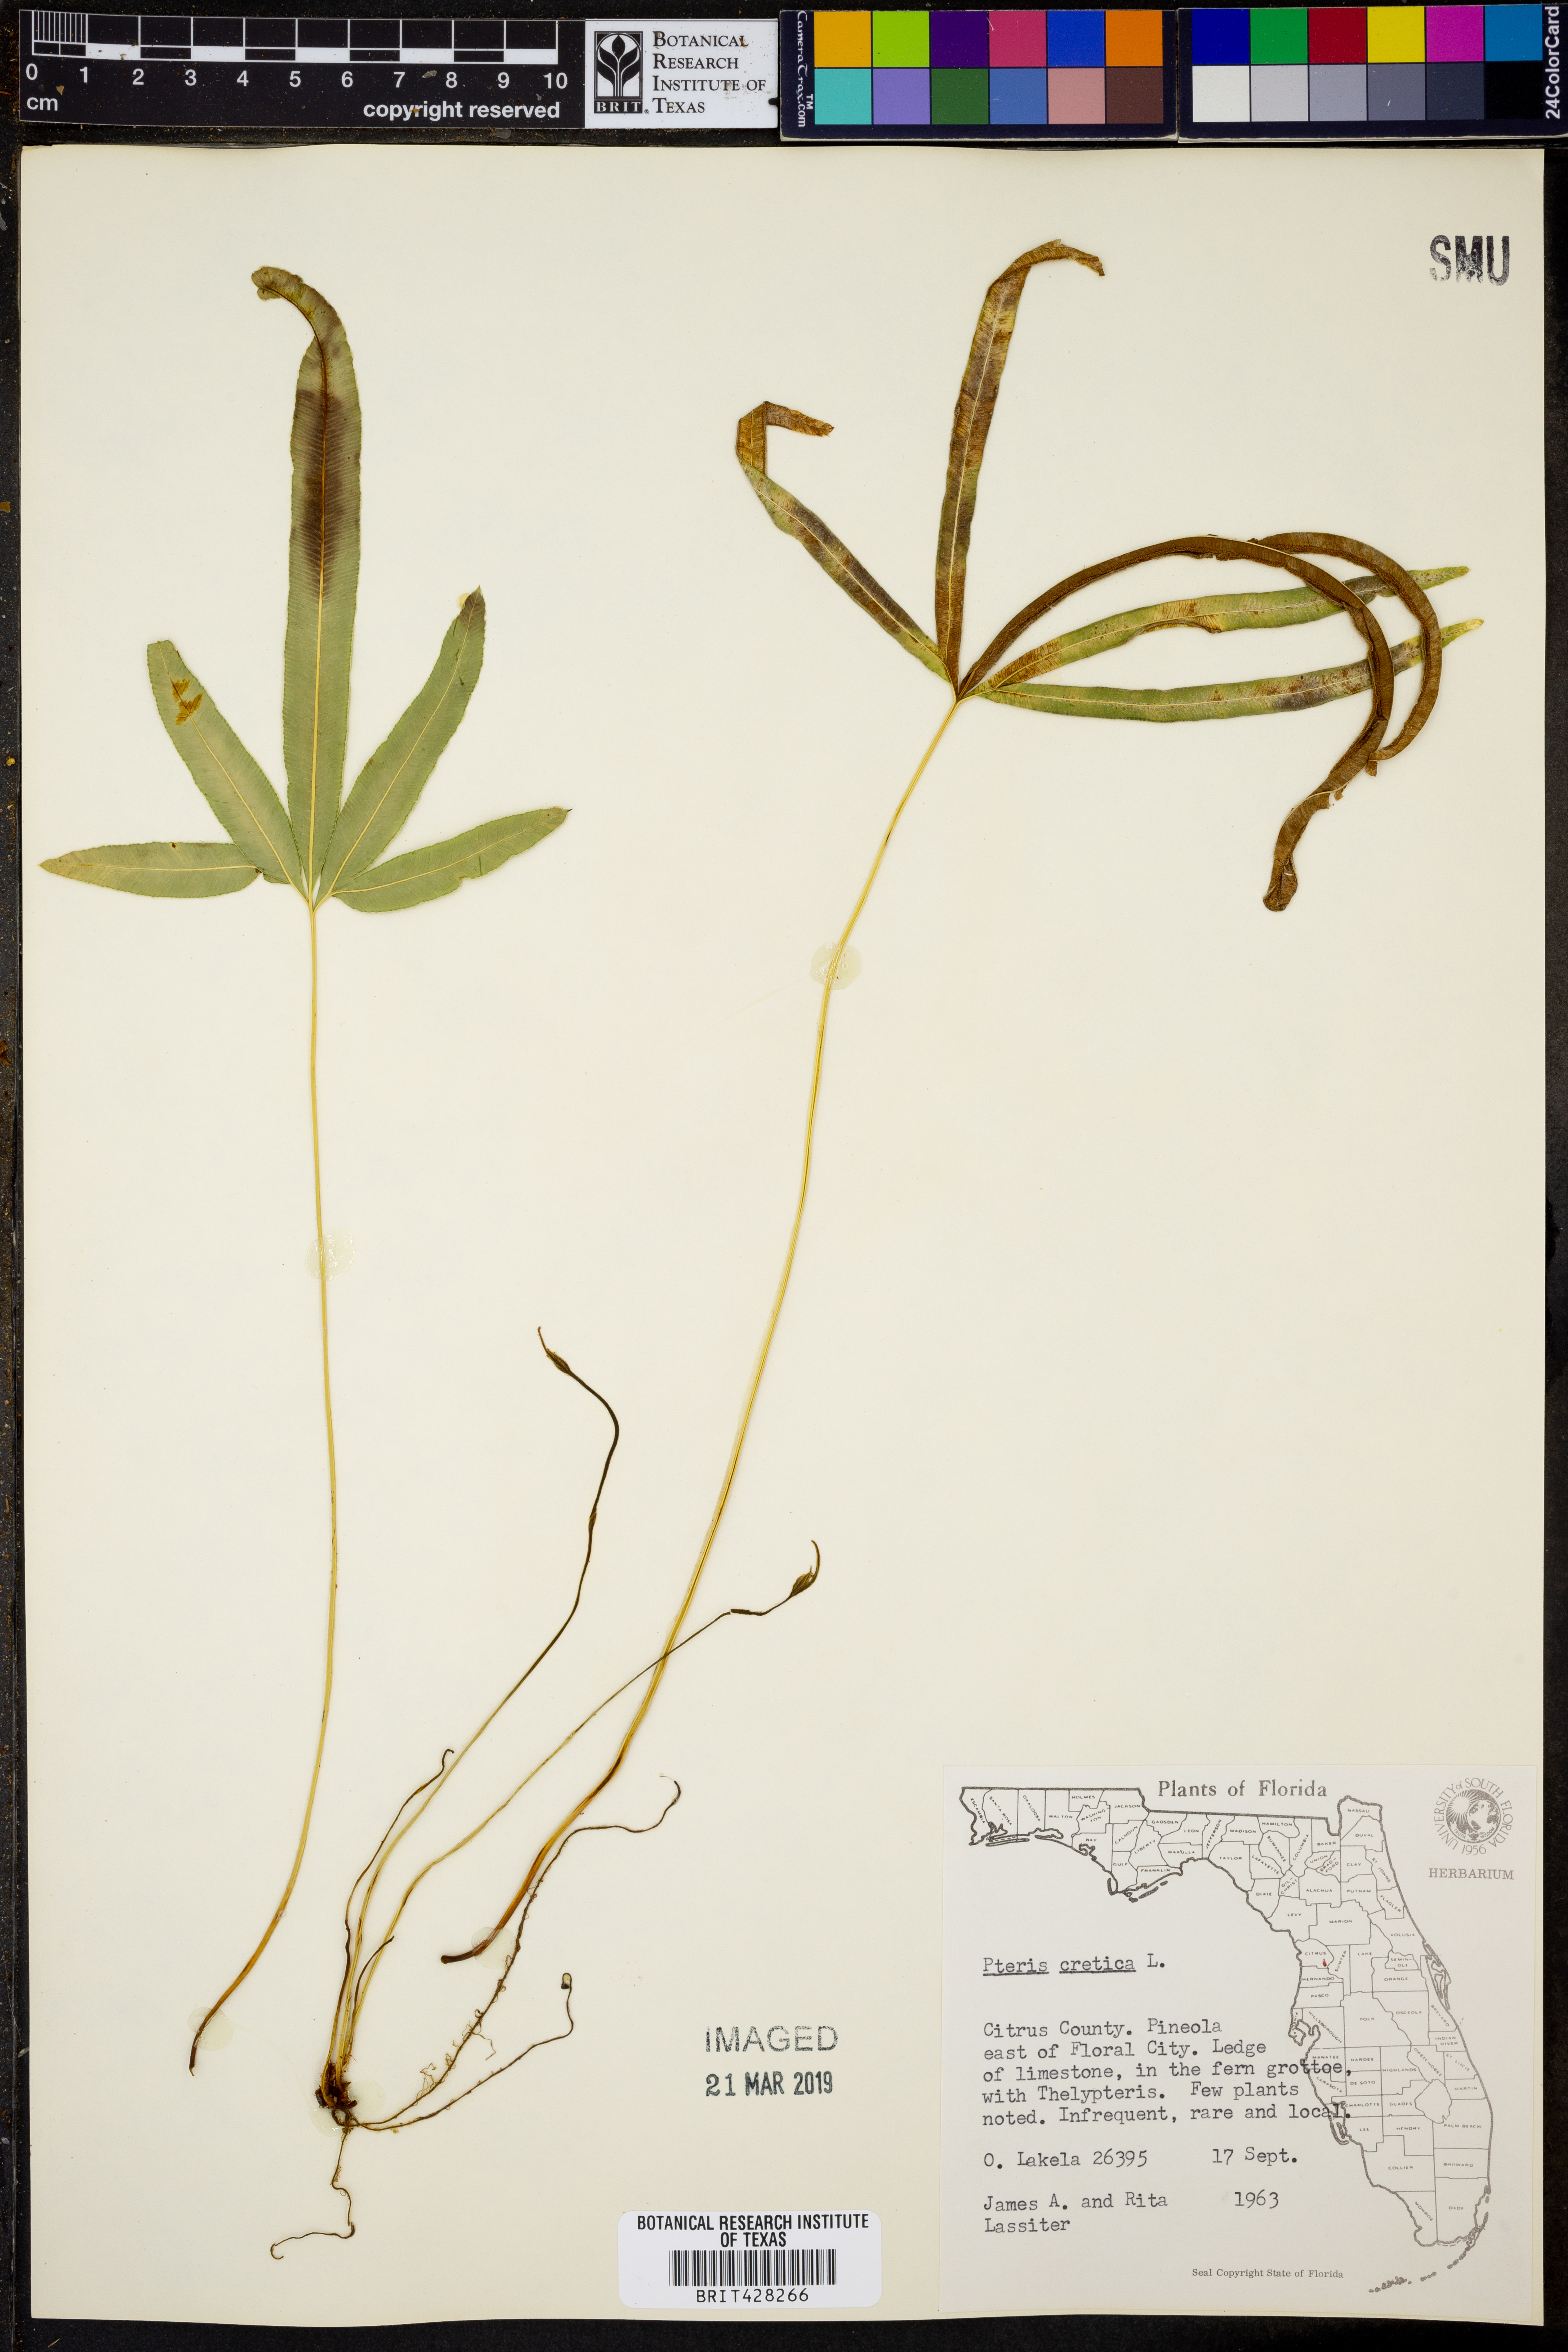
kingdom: Plantae
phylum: Tracheophyta
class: Polypodiopsida
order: Polypodiales
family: Pteridaceae
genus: Pteris
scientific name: Pteris cretica
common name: Ribbon fern
